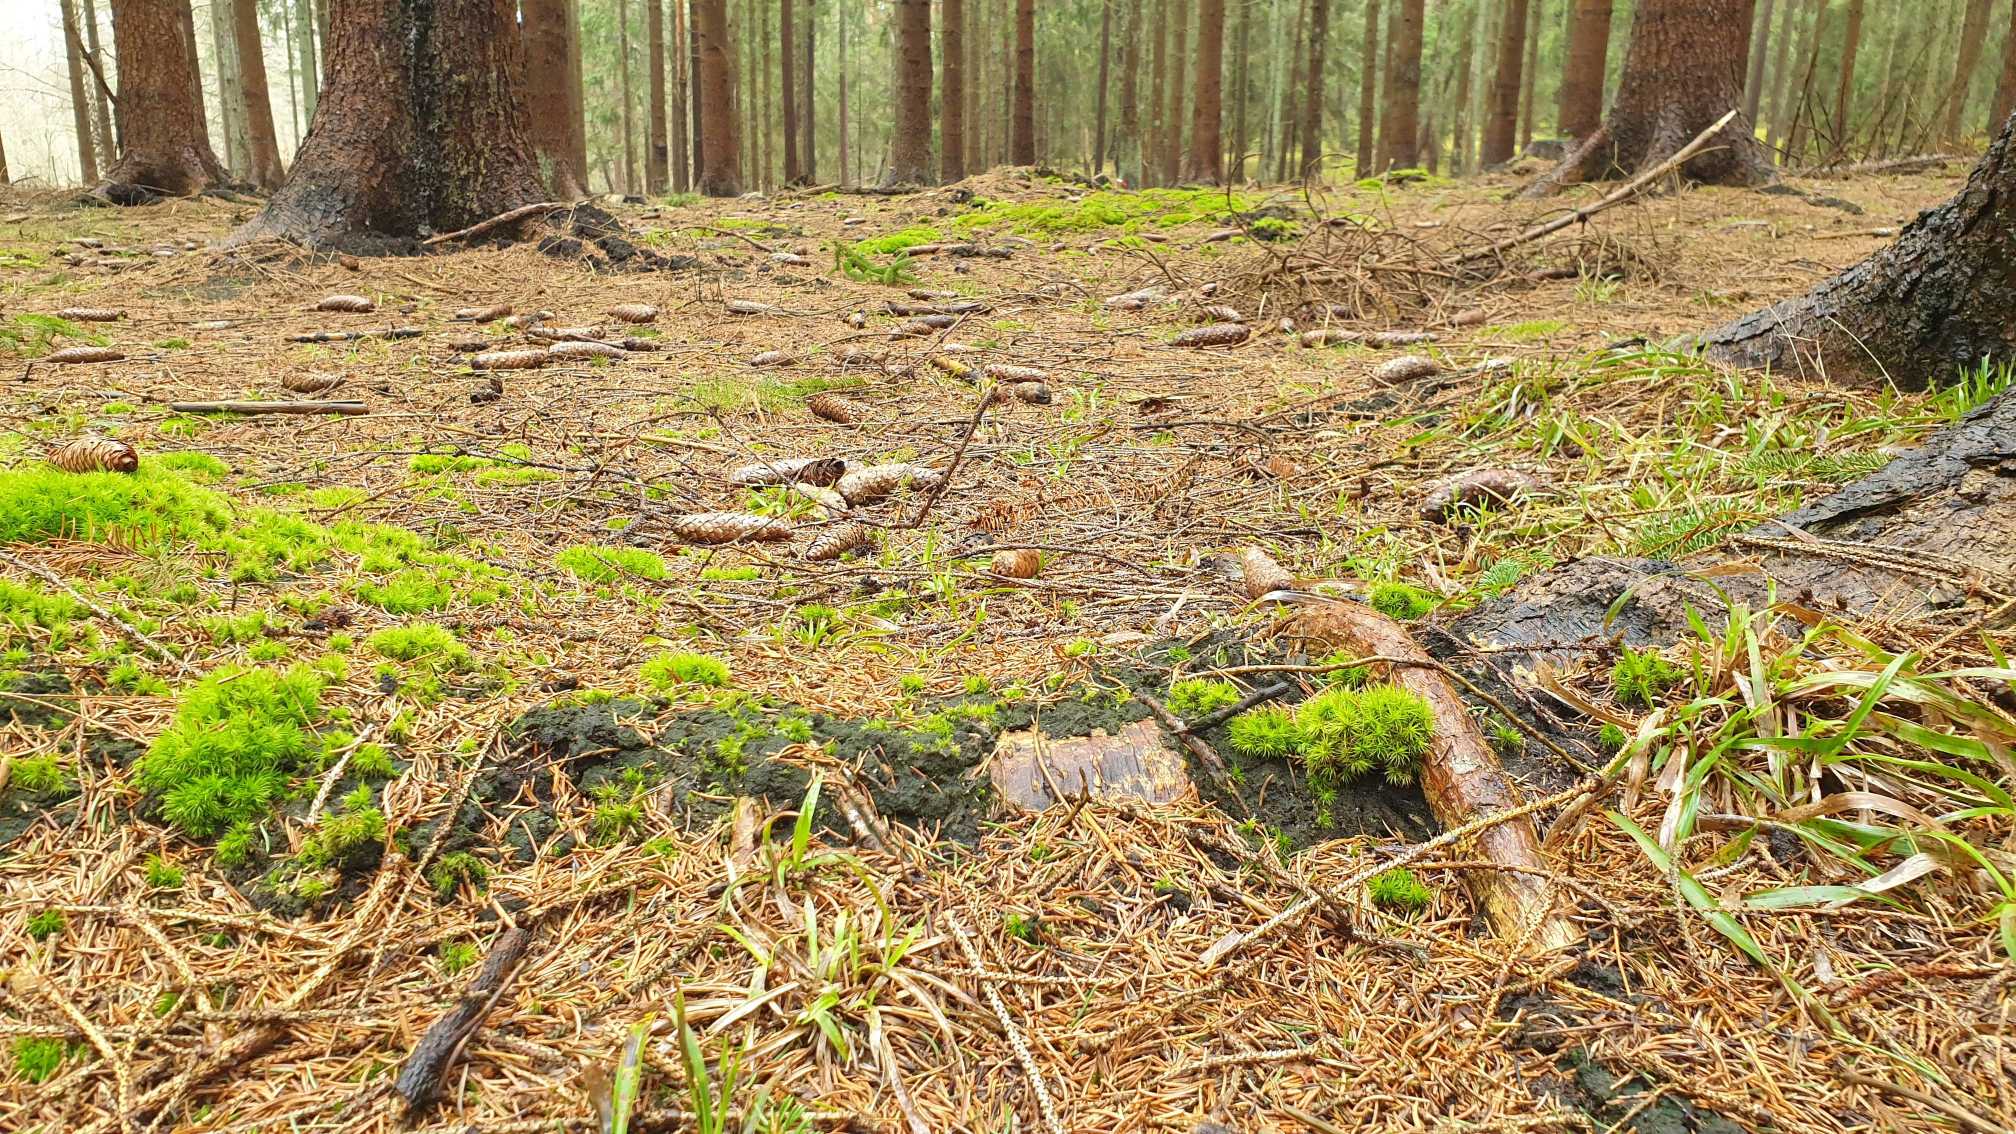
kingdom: Plantae
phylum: Bryophyta
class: Bryopsida
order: Buxbaumiales
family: Buxbaumiaceae
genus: Buxbaumia
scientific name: Buxbaumia viridis
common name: Grøn buxbaumia
